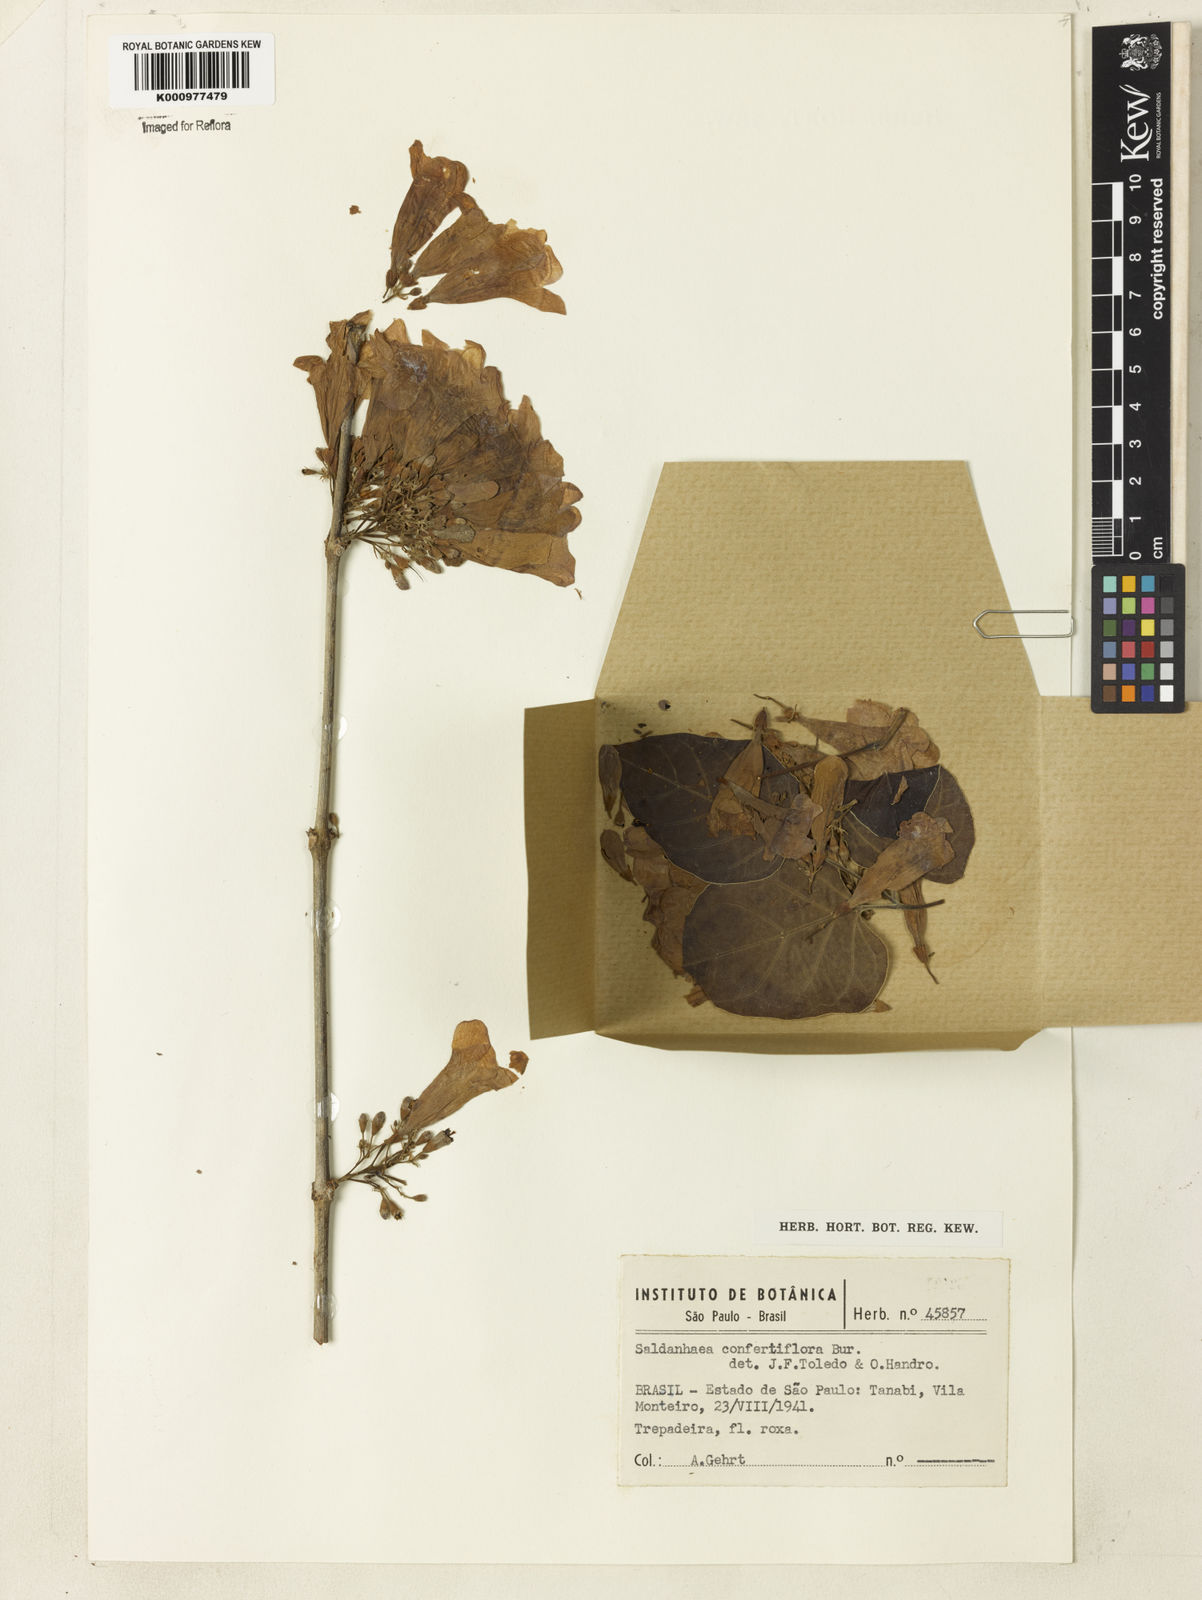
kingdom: Plantae
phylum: Tracheophyta
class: Magnoliopsida
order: Lamiales
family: Bignoniaceae
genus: Cuspidaria
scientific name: Cuspidaria
